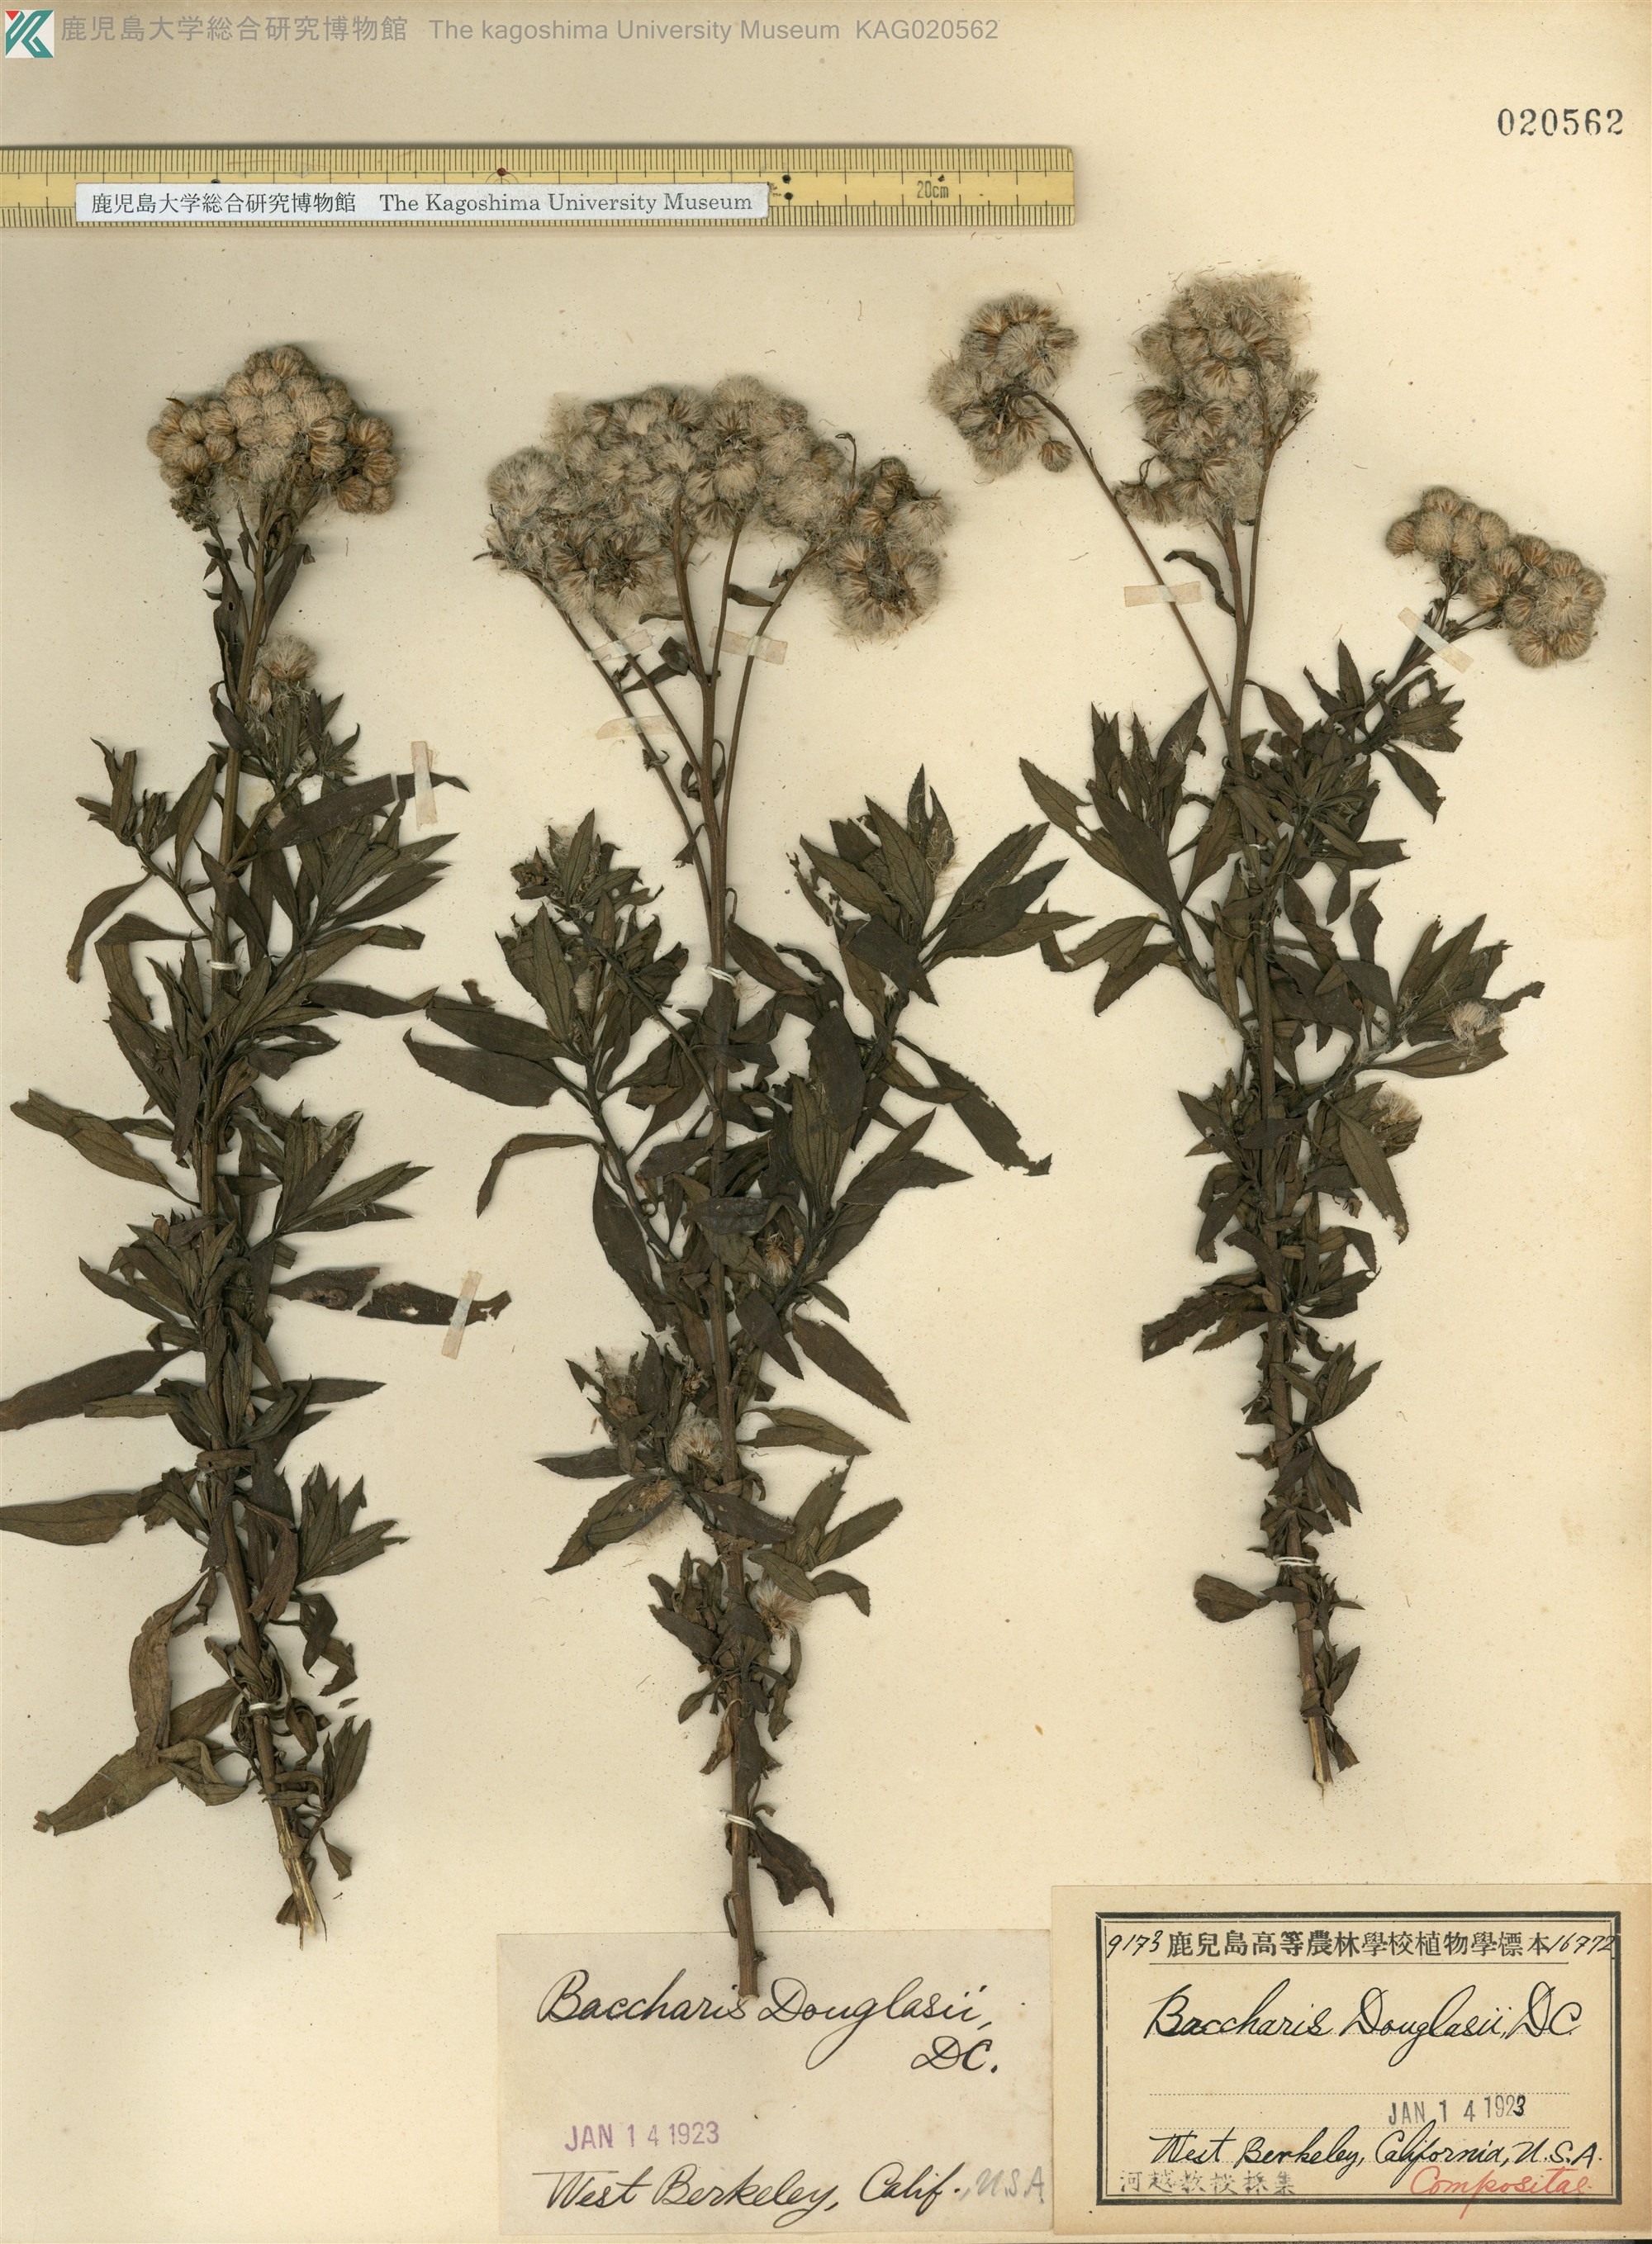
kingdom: Plantae
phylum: Tracheophyta
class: Magnoliopsida
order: Asterales
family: Asteraceae
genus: Baccharis
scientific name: Baccharis douglasii
